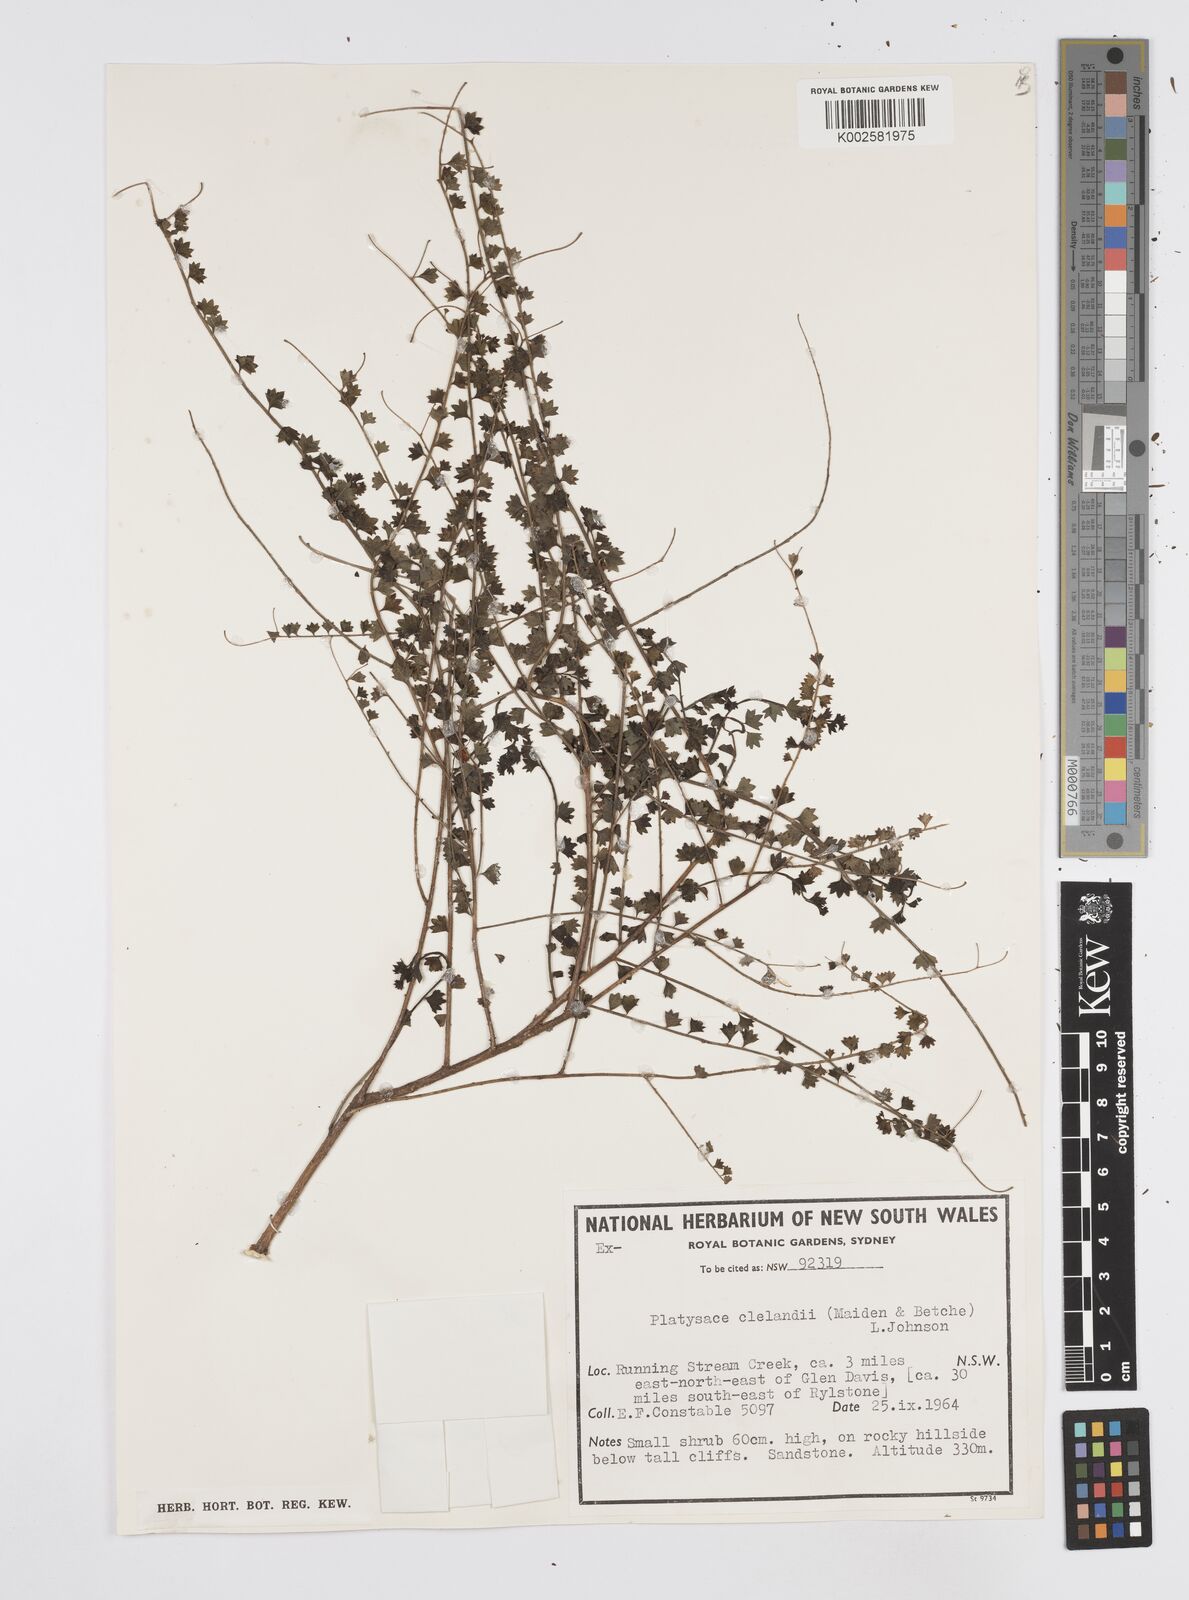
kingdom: Plantae
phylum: Tracheophyta
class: Magnoliopsida
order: Apiales
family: Apiaceae
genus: Platysace
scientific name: Platysace clelandii
